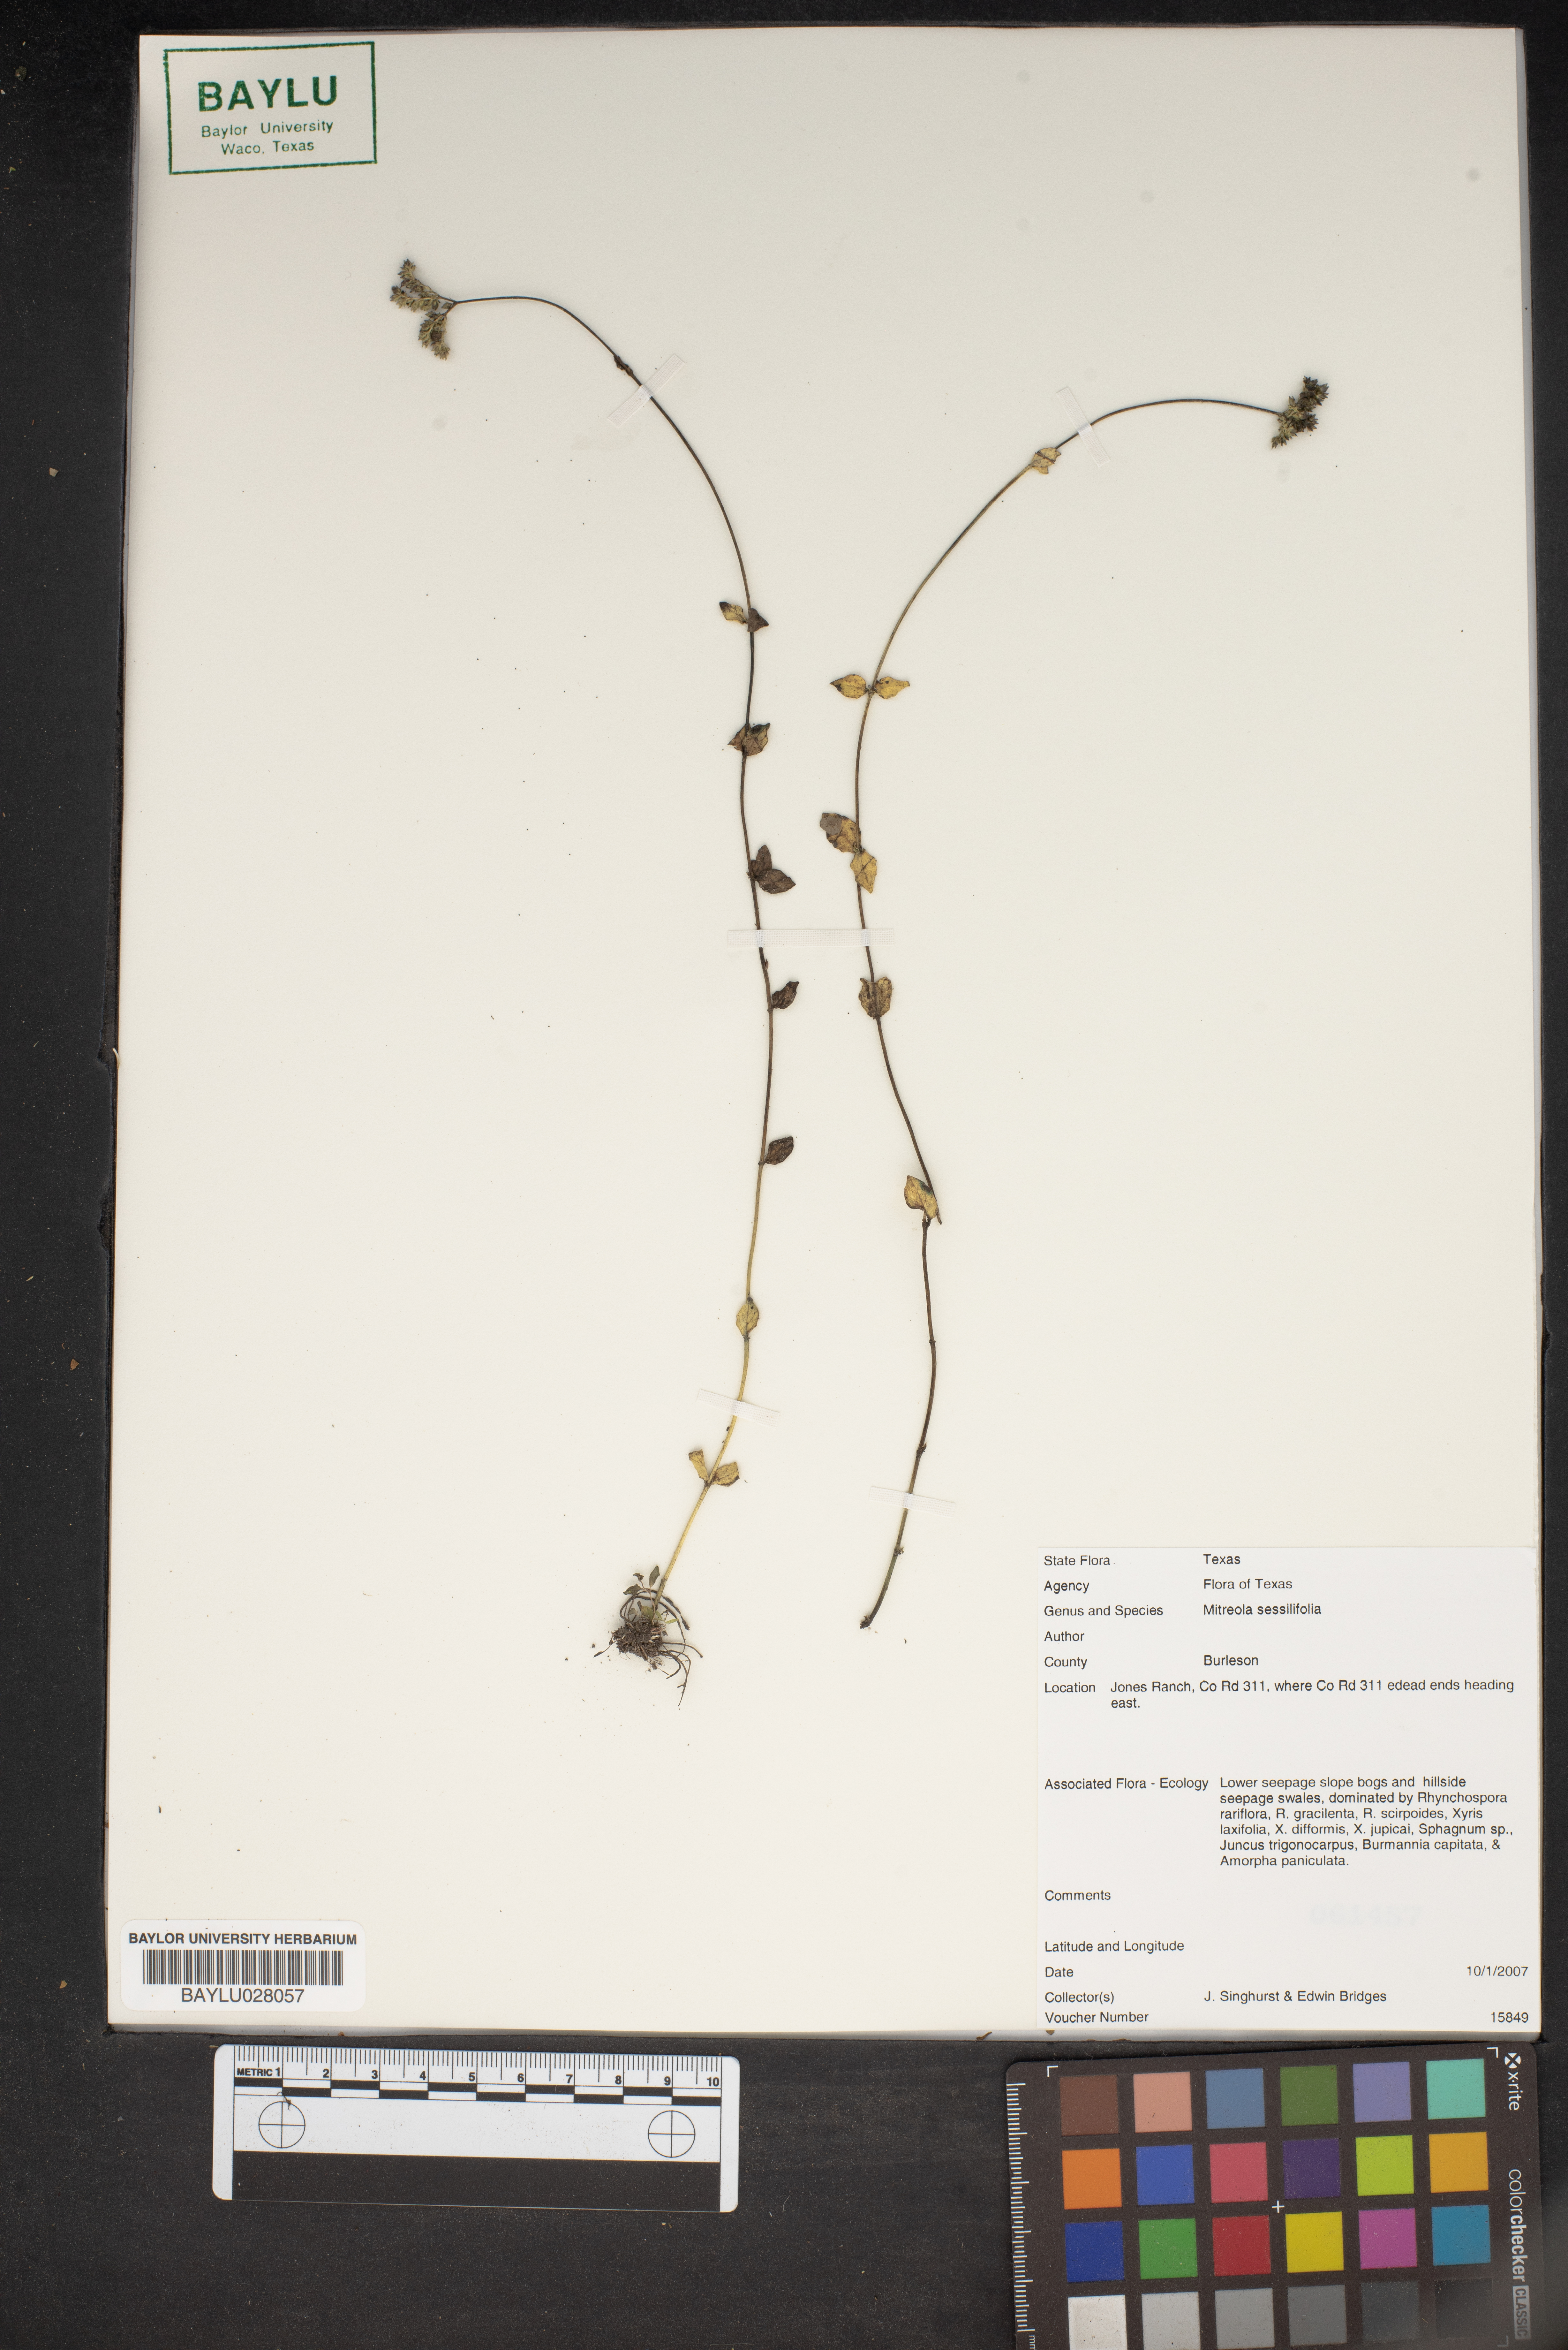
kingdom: Plantae
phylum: Tracheophyta
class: Magnoliopsida
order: Gentianales
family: Loganiaceae
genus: Mitreola
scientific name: Mitreola sessilifolia
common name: Swamp hornpod
